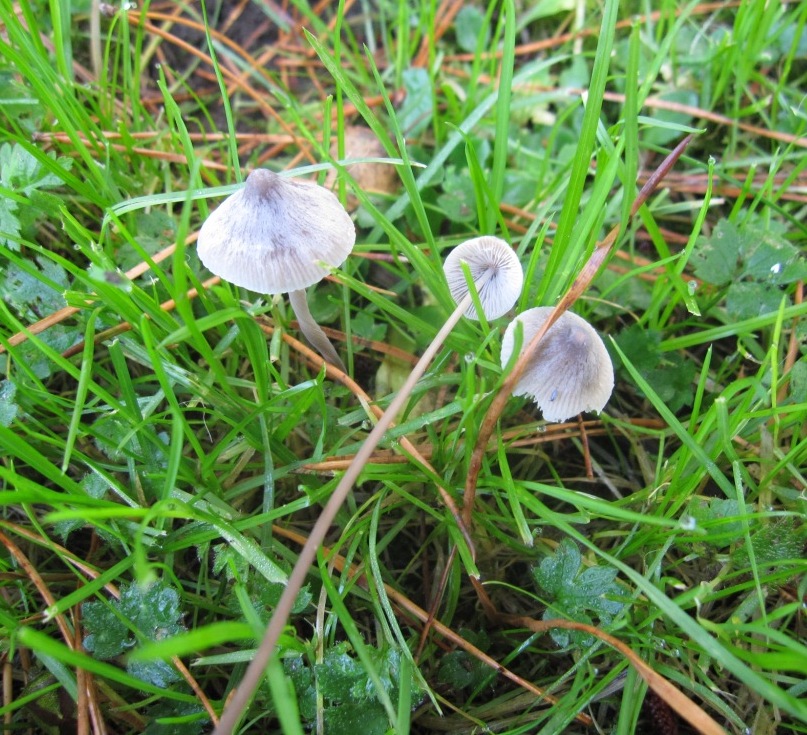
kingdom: Fungi
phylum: Basidiomycota
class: Agaricomycetes
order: Agaricales
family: Mycenaceae
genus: Mycena
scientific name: Mycena filopes
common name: jod-huesvamp
